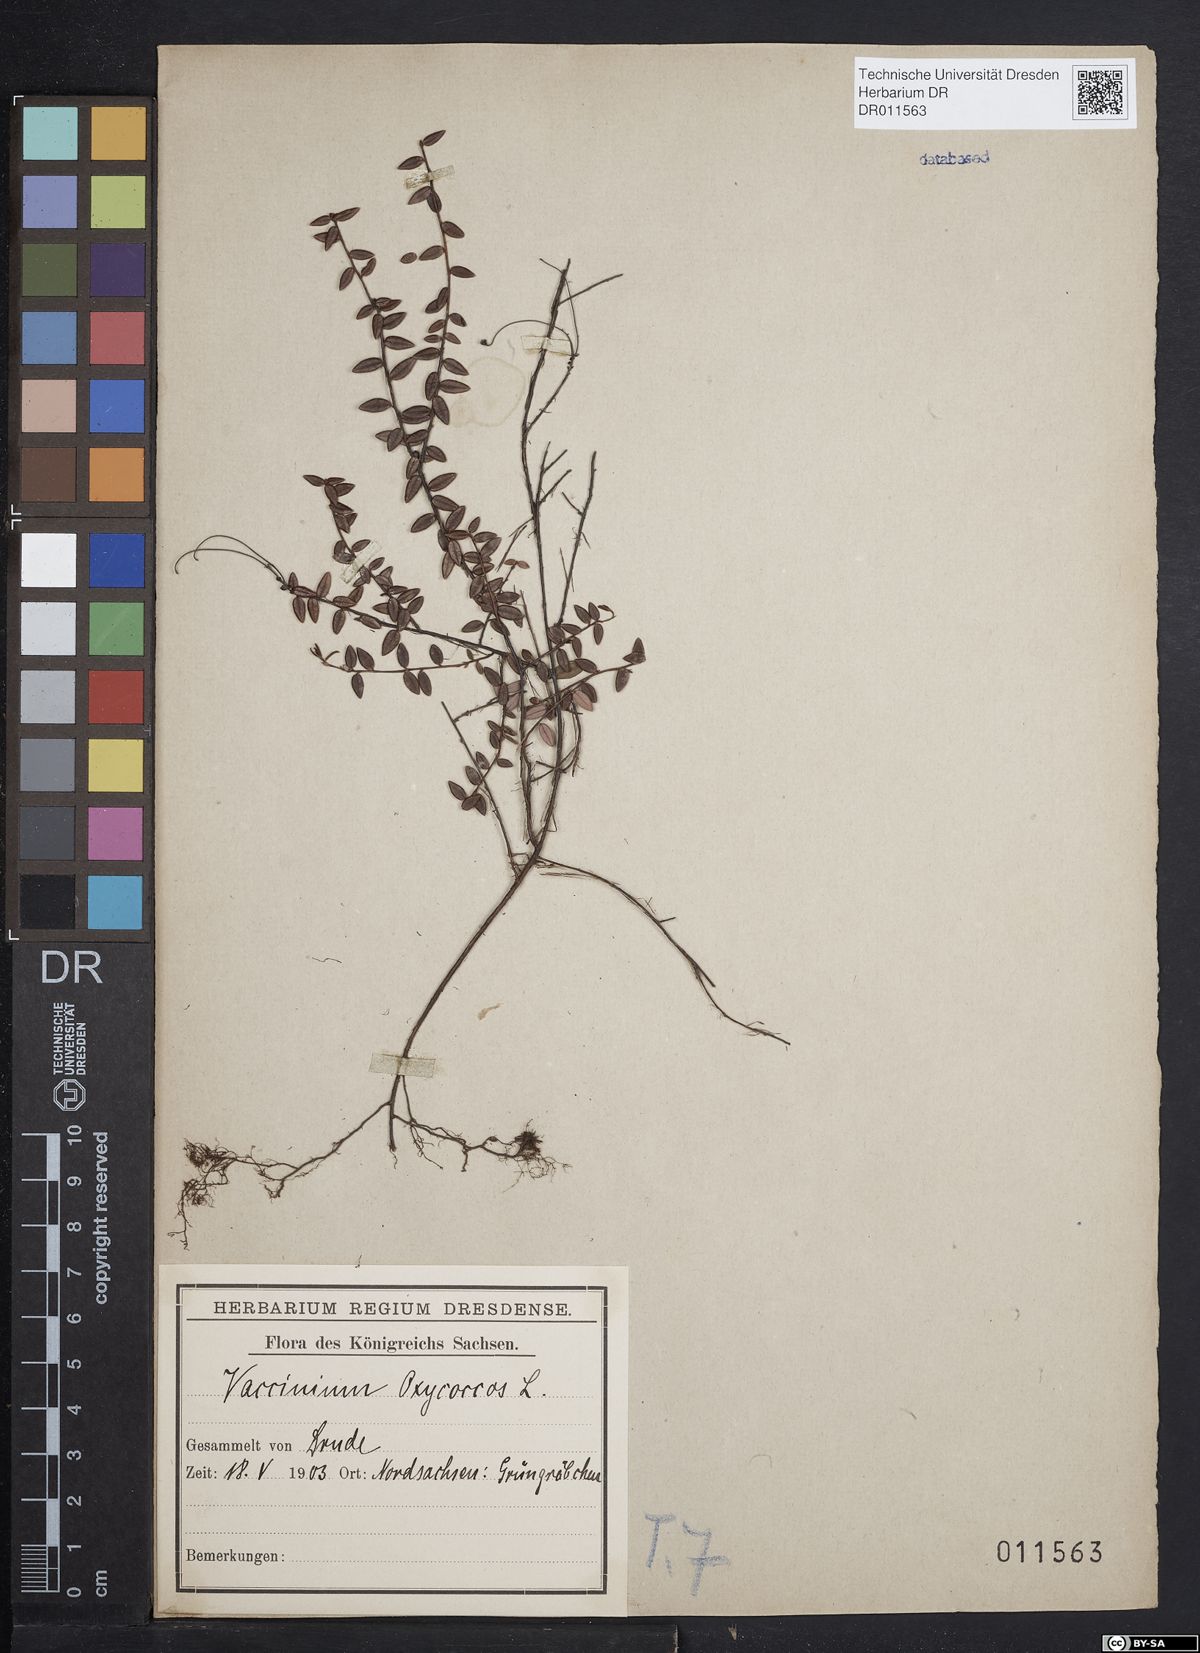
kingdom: Plantae
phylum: Tracheophyta
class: Magnoliopsida
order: Ericales
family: Ericaceae
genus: Vaccinium
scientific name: Vaccinium oxycoccos
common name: Cranberry
